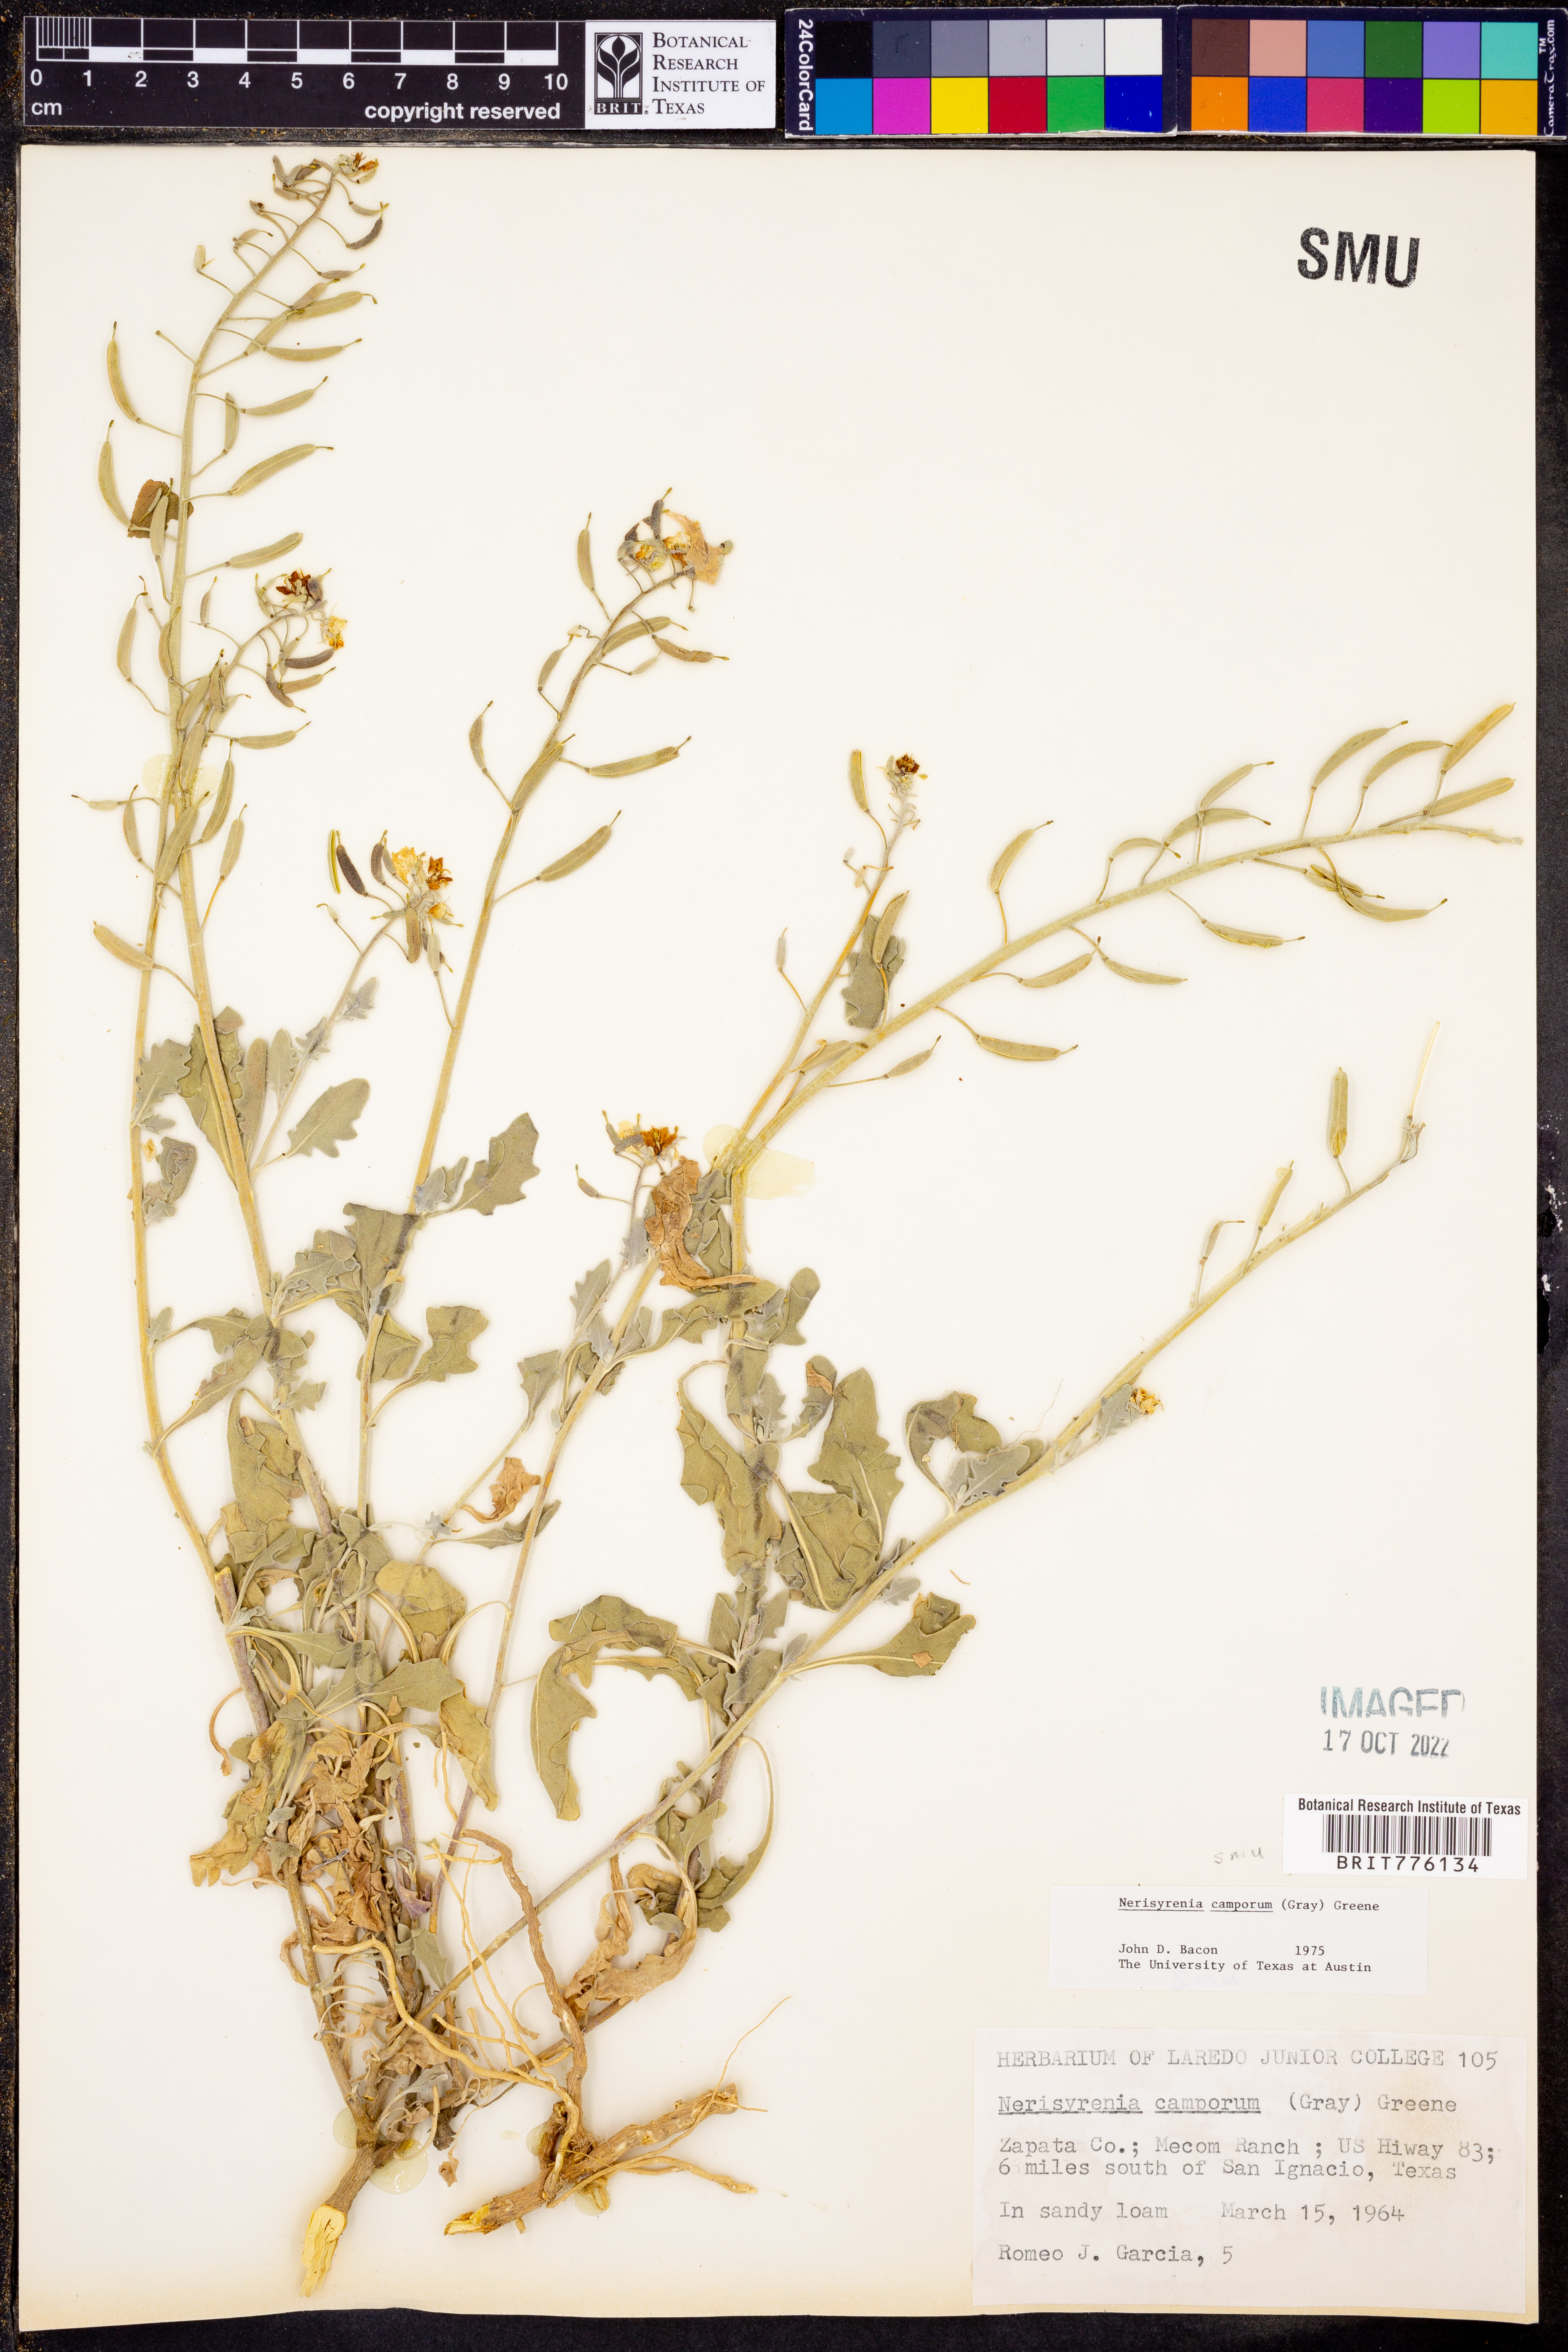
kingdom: Plantae
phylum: Tracheophyta
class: Magnoliopsida
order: Brassicales
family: Brassicaceae
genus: Nerisyrenia
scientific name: Nerisyrenia camporum
